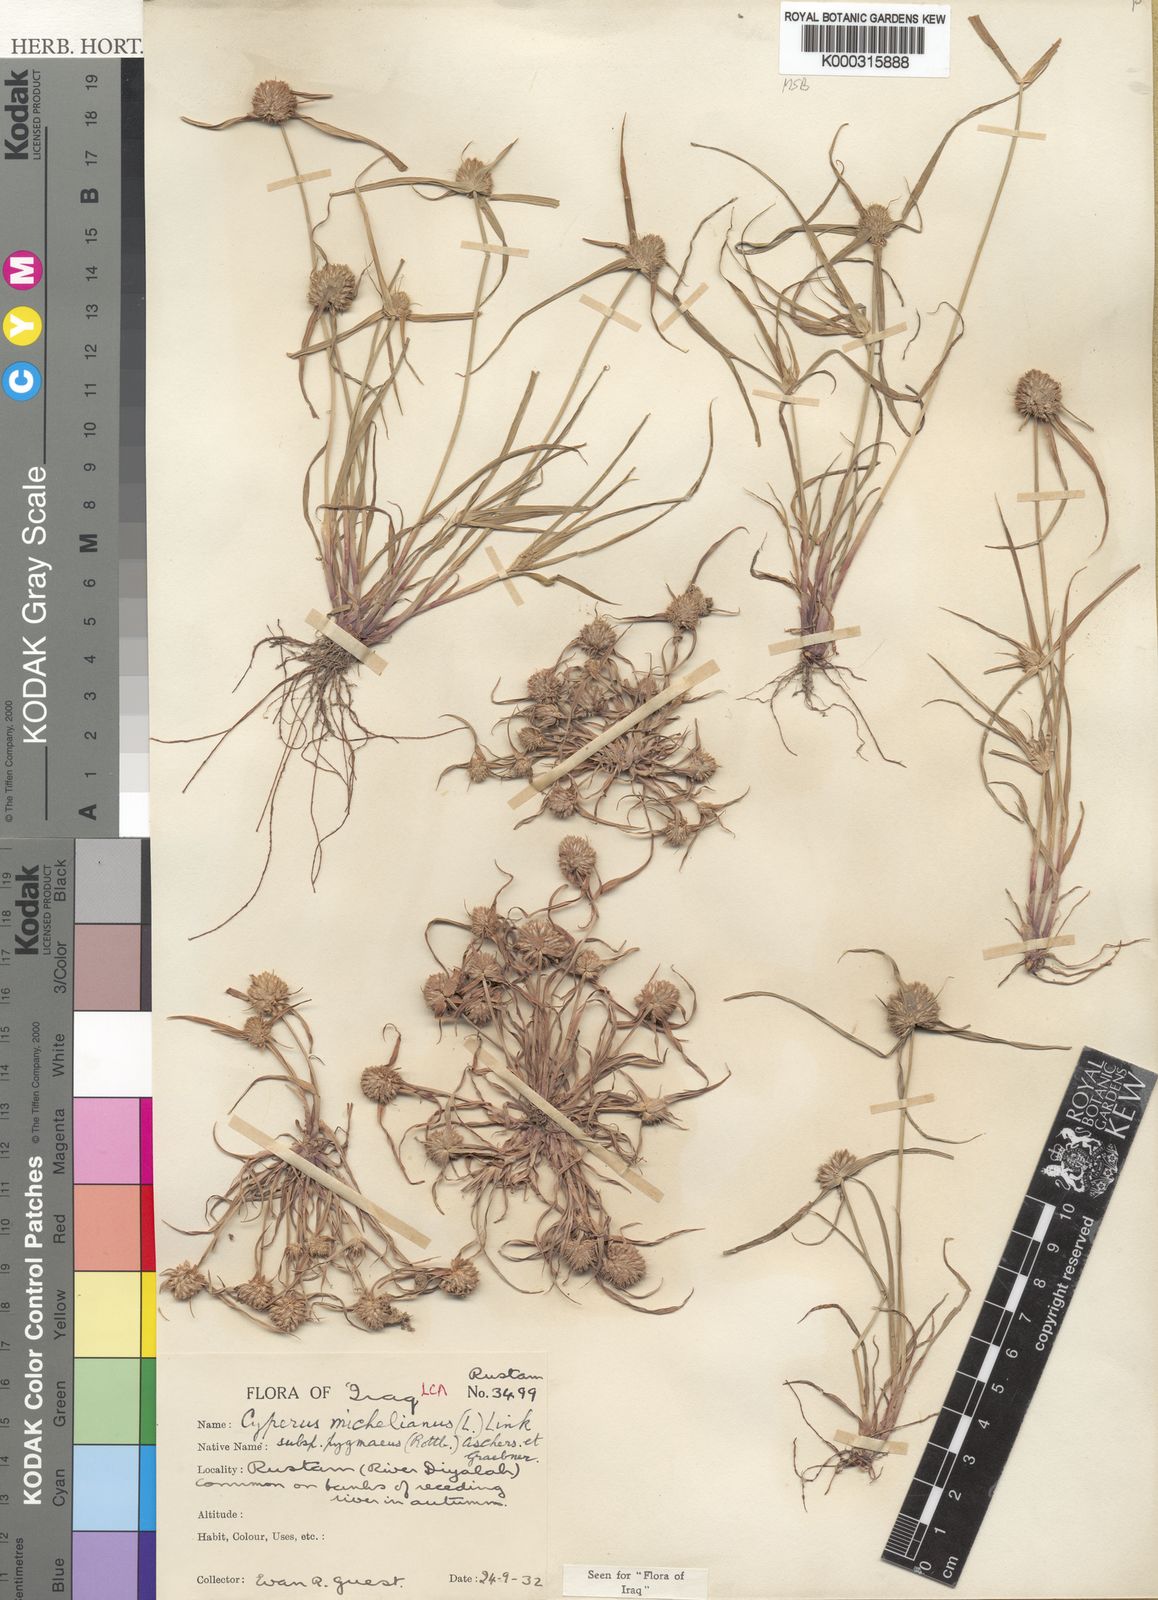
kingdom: Plantae
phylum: Tracheophyta
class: Liliopsida
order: Poales
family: Cyperaceae
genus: Cyperus
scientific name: Cyperus michelianus
